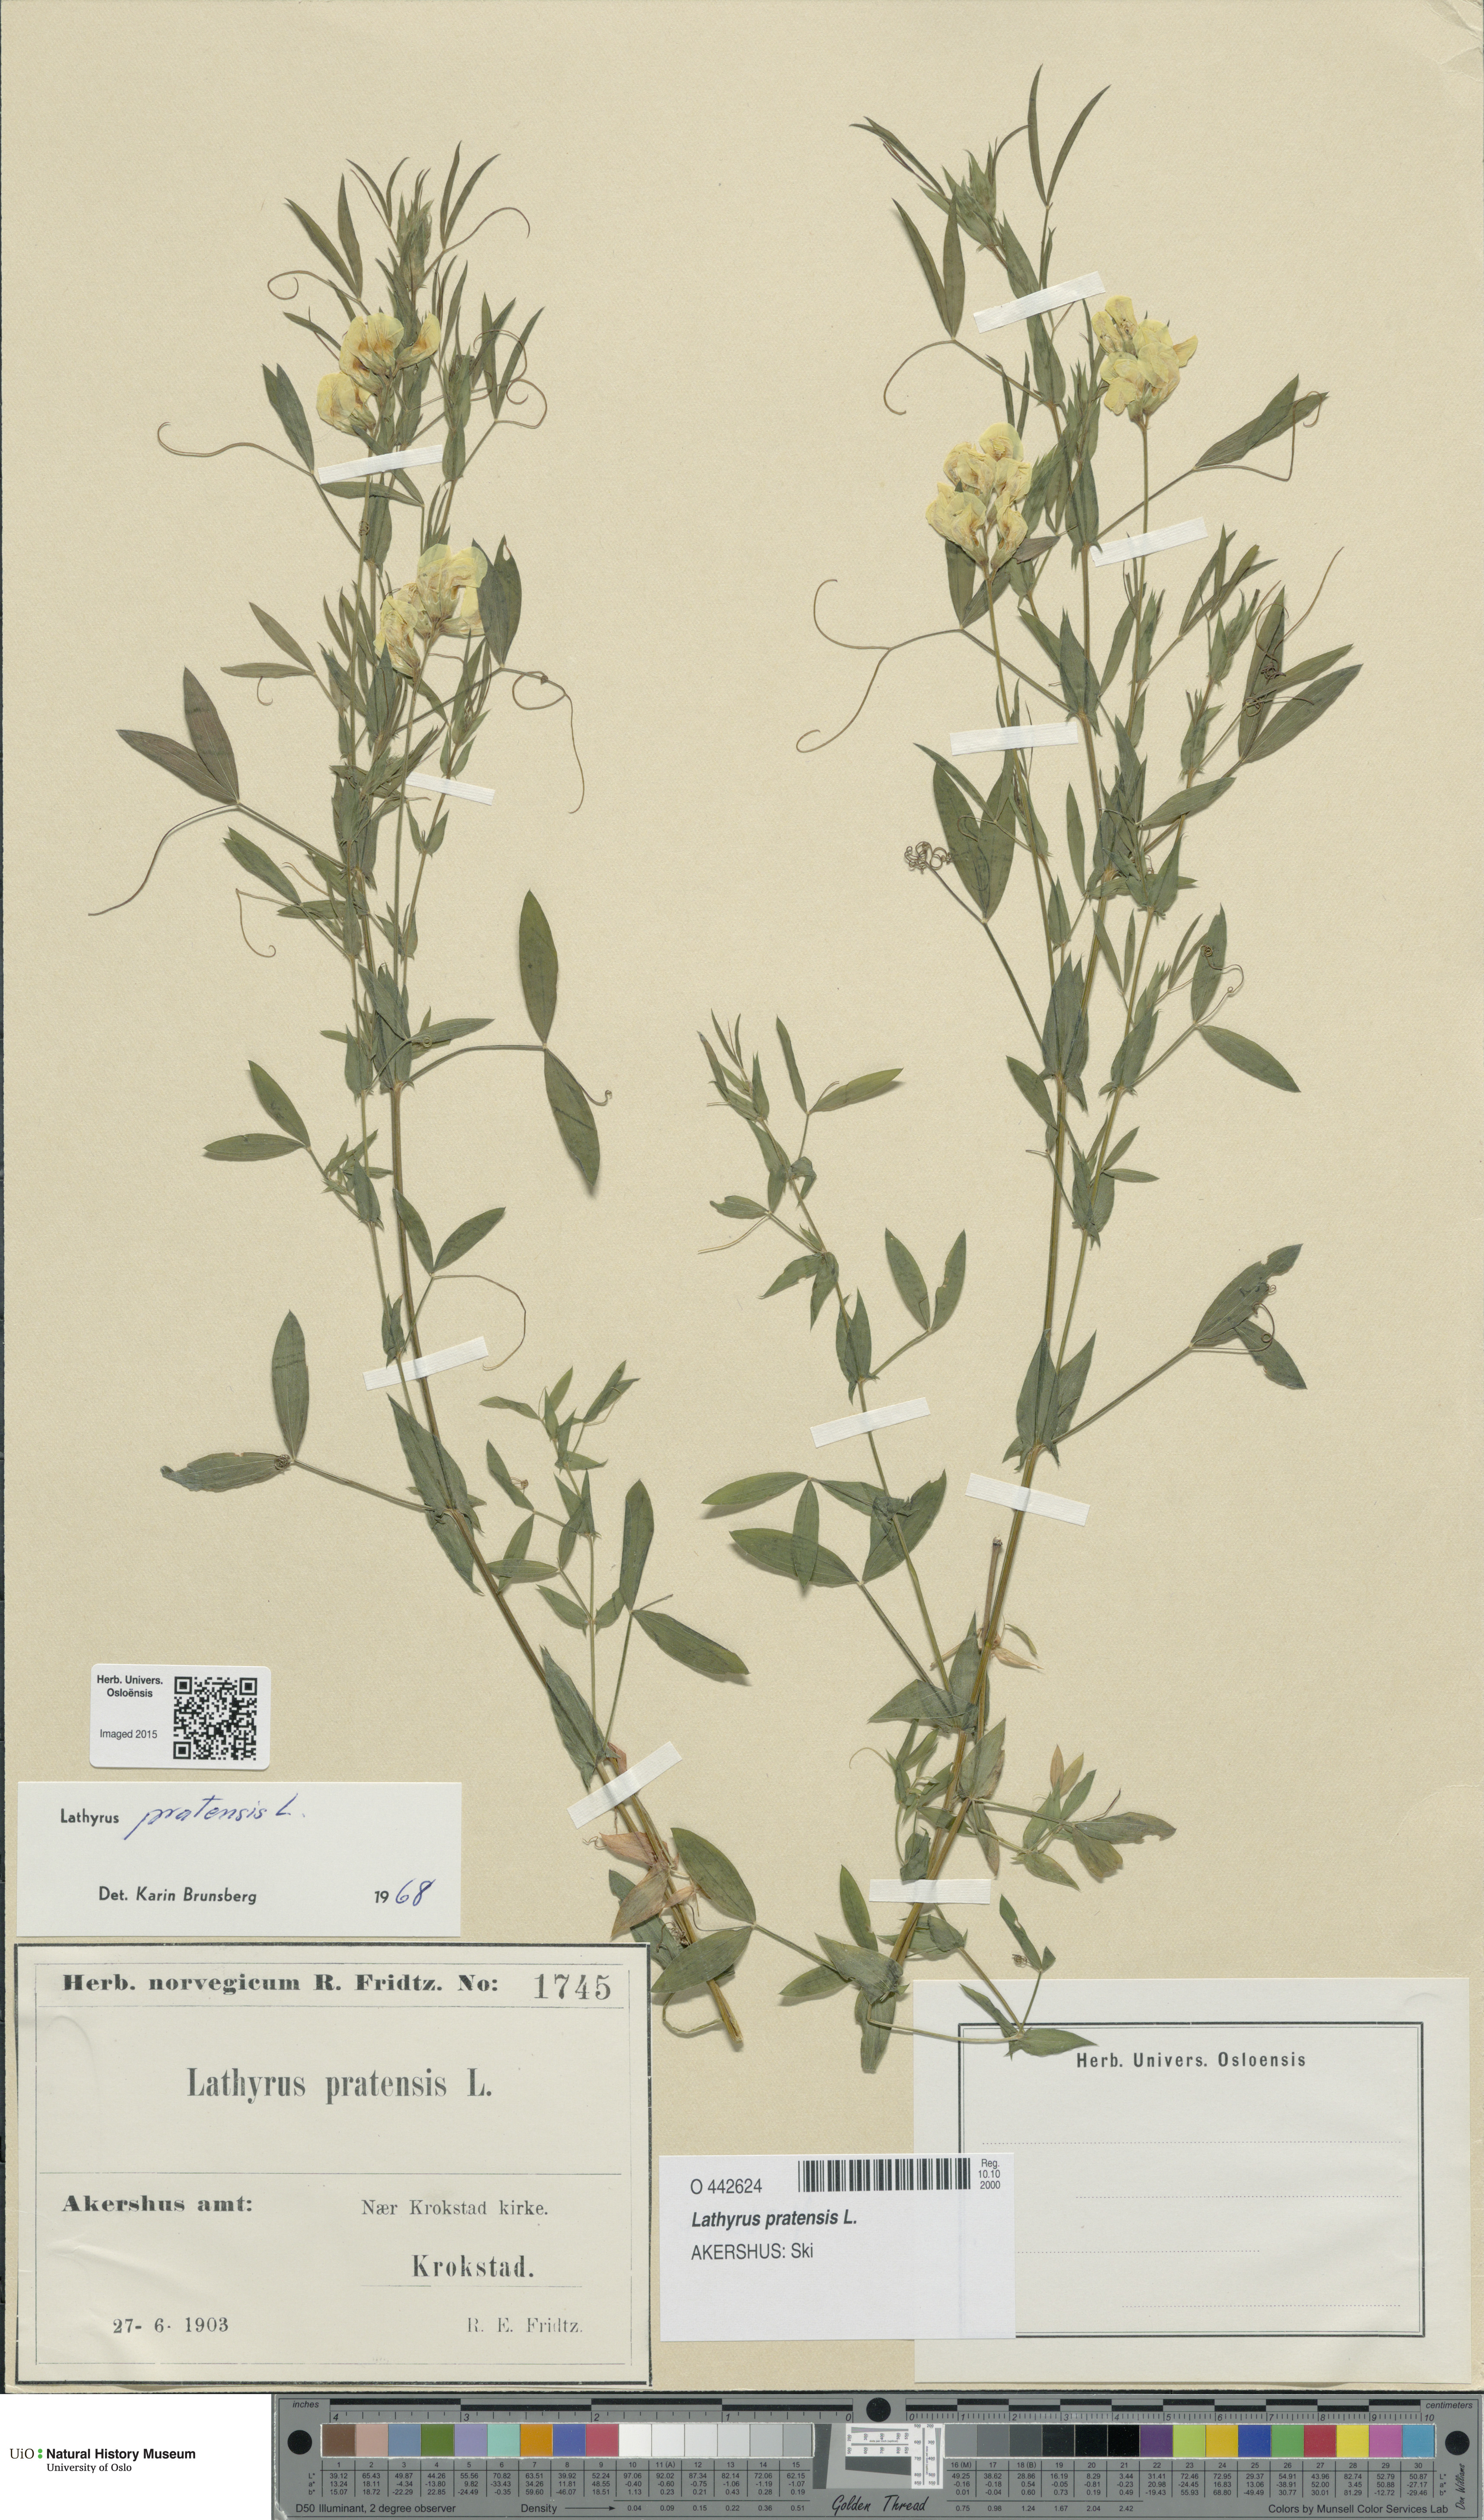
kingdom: Plantae
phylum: Tracheophyta
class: Magnoliopsida
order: Fabales
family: Fabaceae
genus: Lathyrus
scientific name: Lathyrus pratensis
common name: Meadow vetchling
